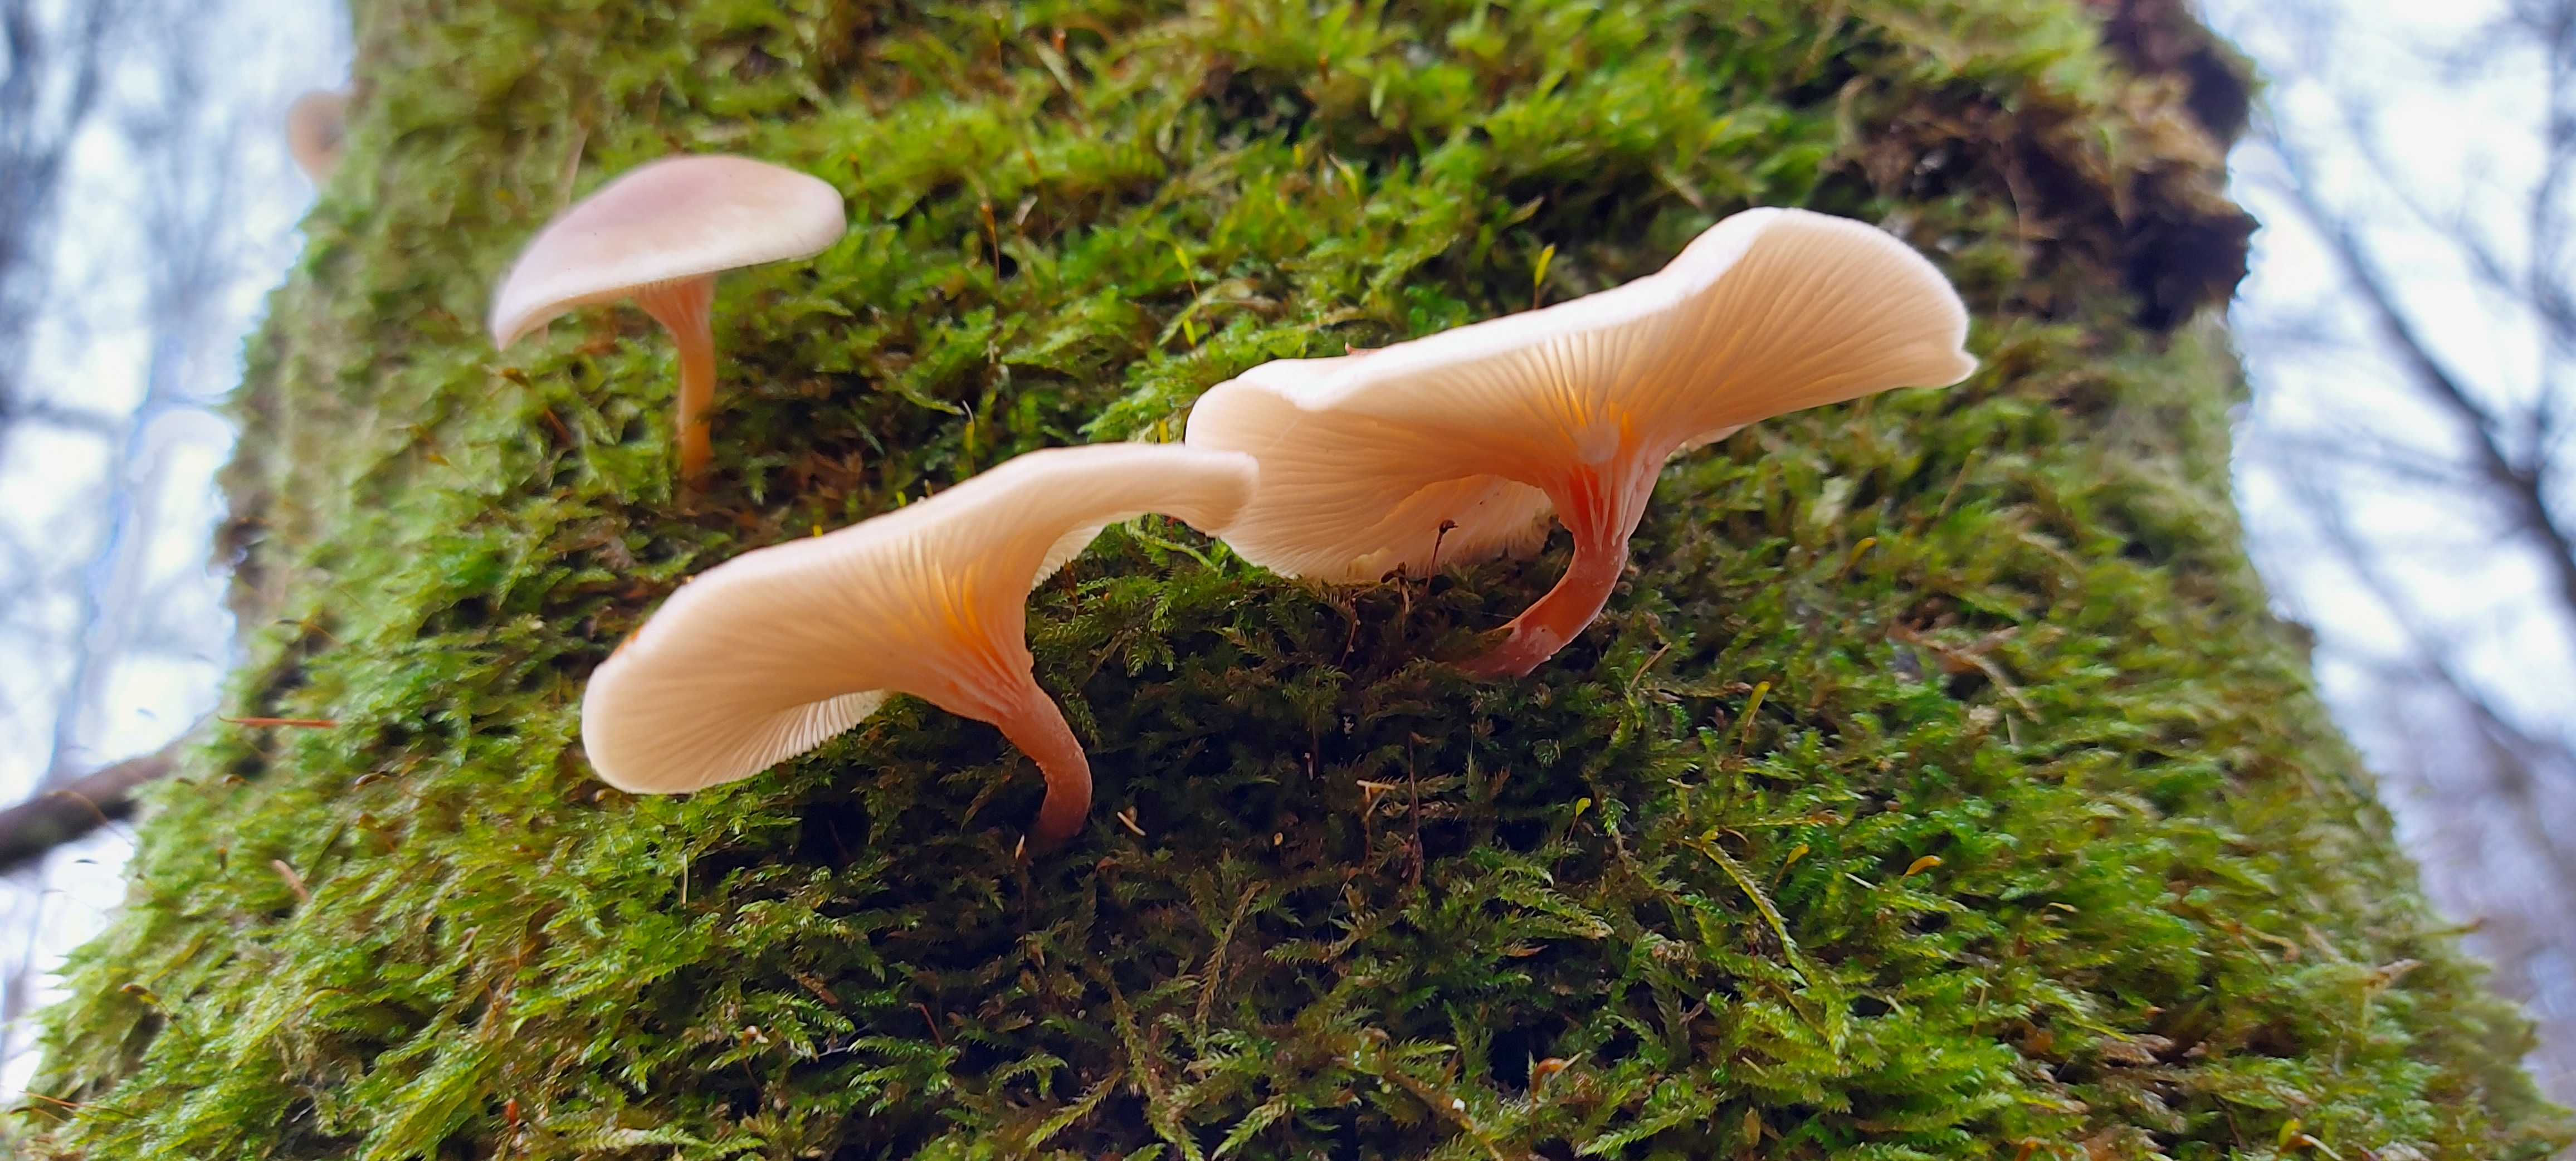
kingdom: Fungi
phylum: Basidiomycota
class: Agaricomycetes
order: Agaricales
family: Tricholomataceae
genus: Clitocybe
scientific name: Clitocybe
